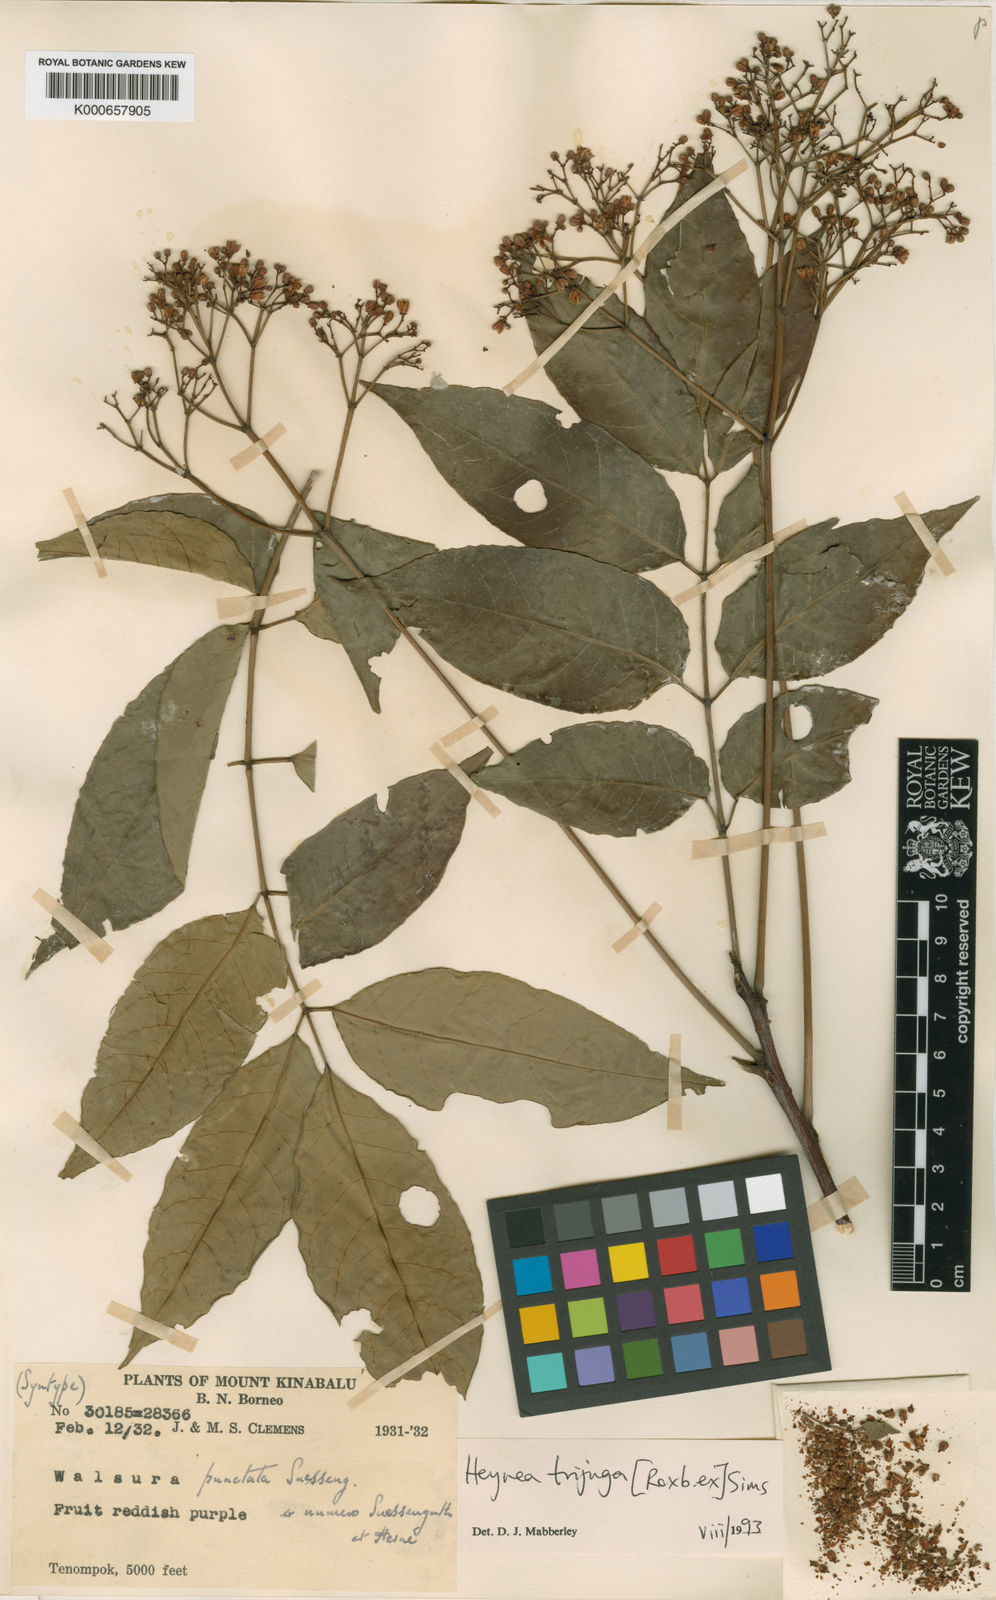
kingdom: Plantae
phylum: Tracheophyta
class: Magnoliopsida
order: Sapindales
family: Meliaceae
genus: Heynea
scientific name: Heynea trijuga
